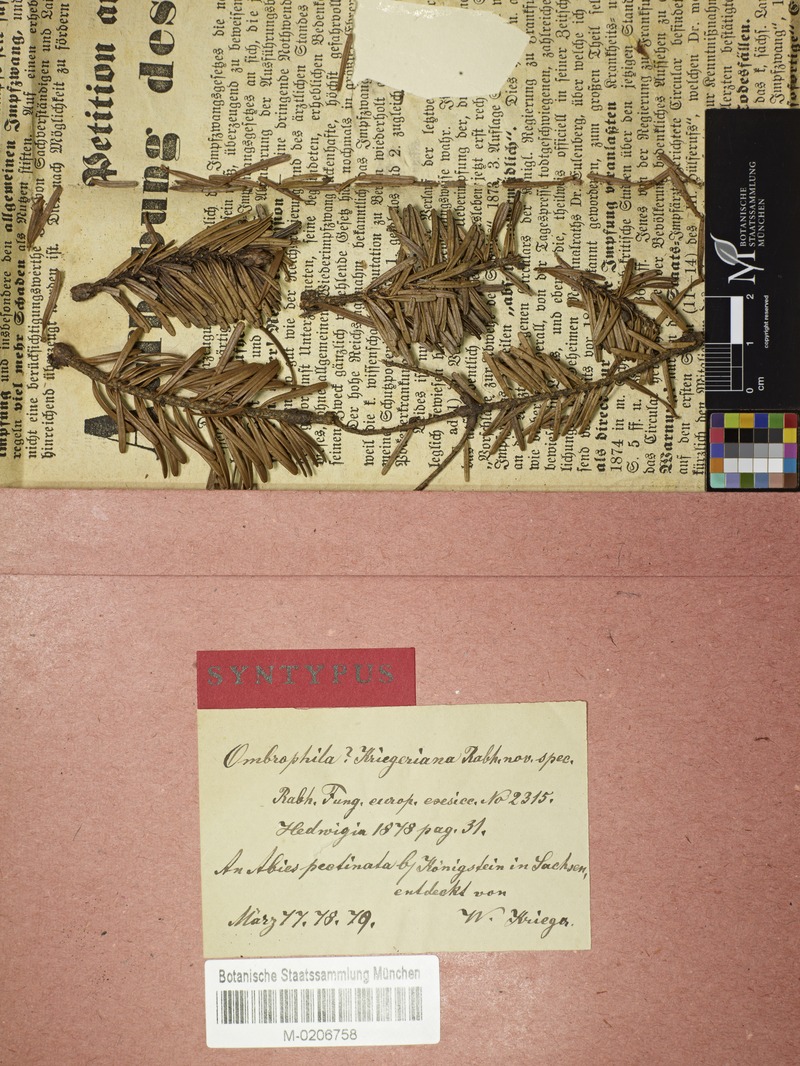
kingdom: Fungi
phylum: Ascomycota
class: Leotiomycetes
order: Helotiales
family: Rutstroemiaceae
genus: Rutstroemia
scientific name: Rutstroemia elatina
